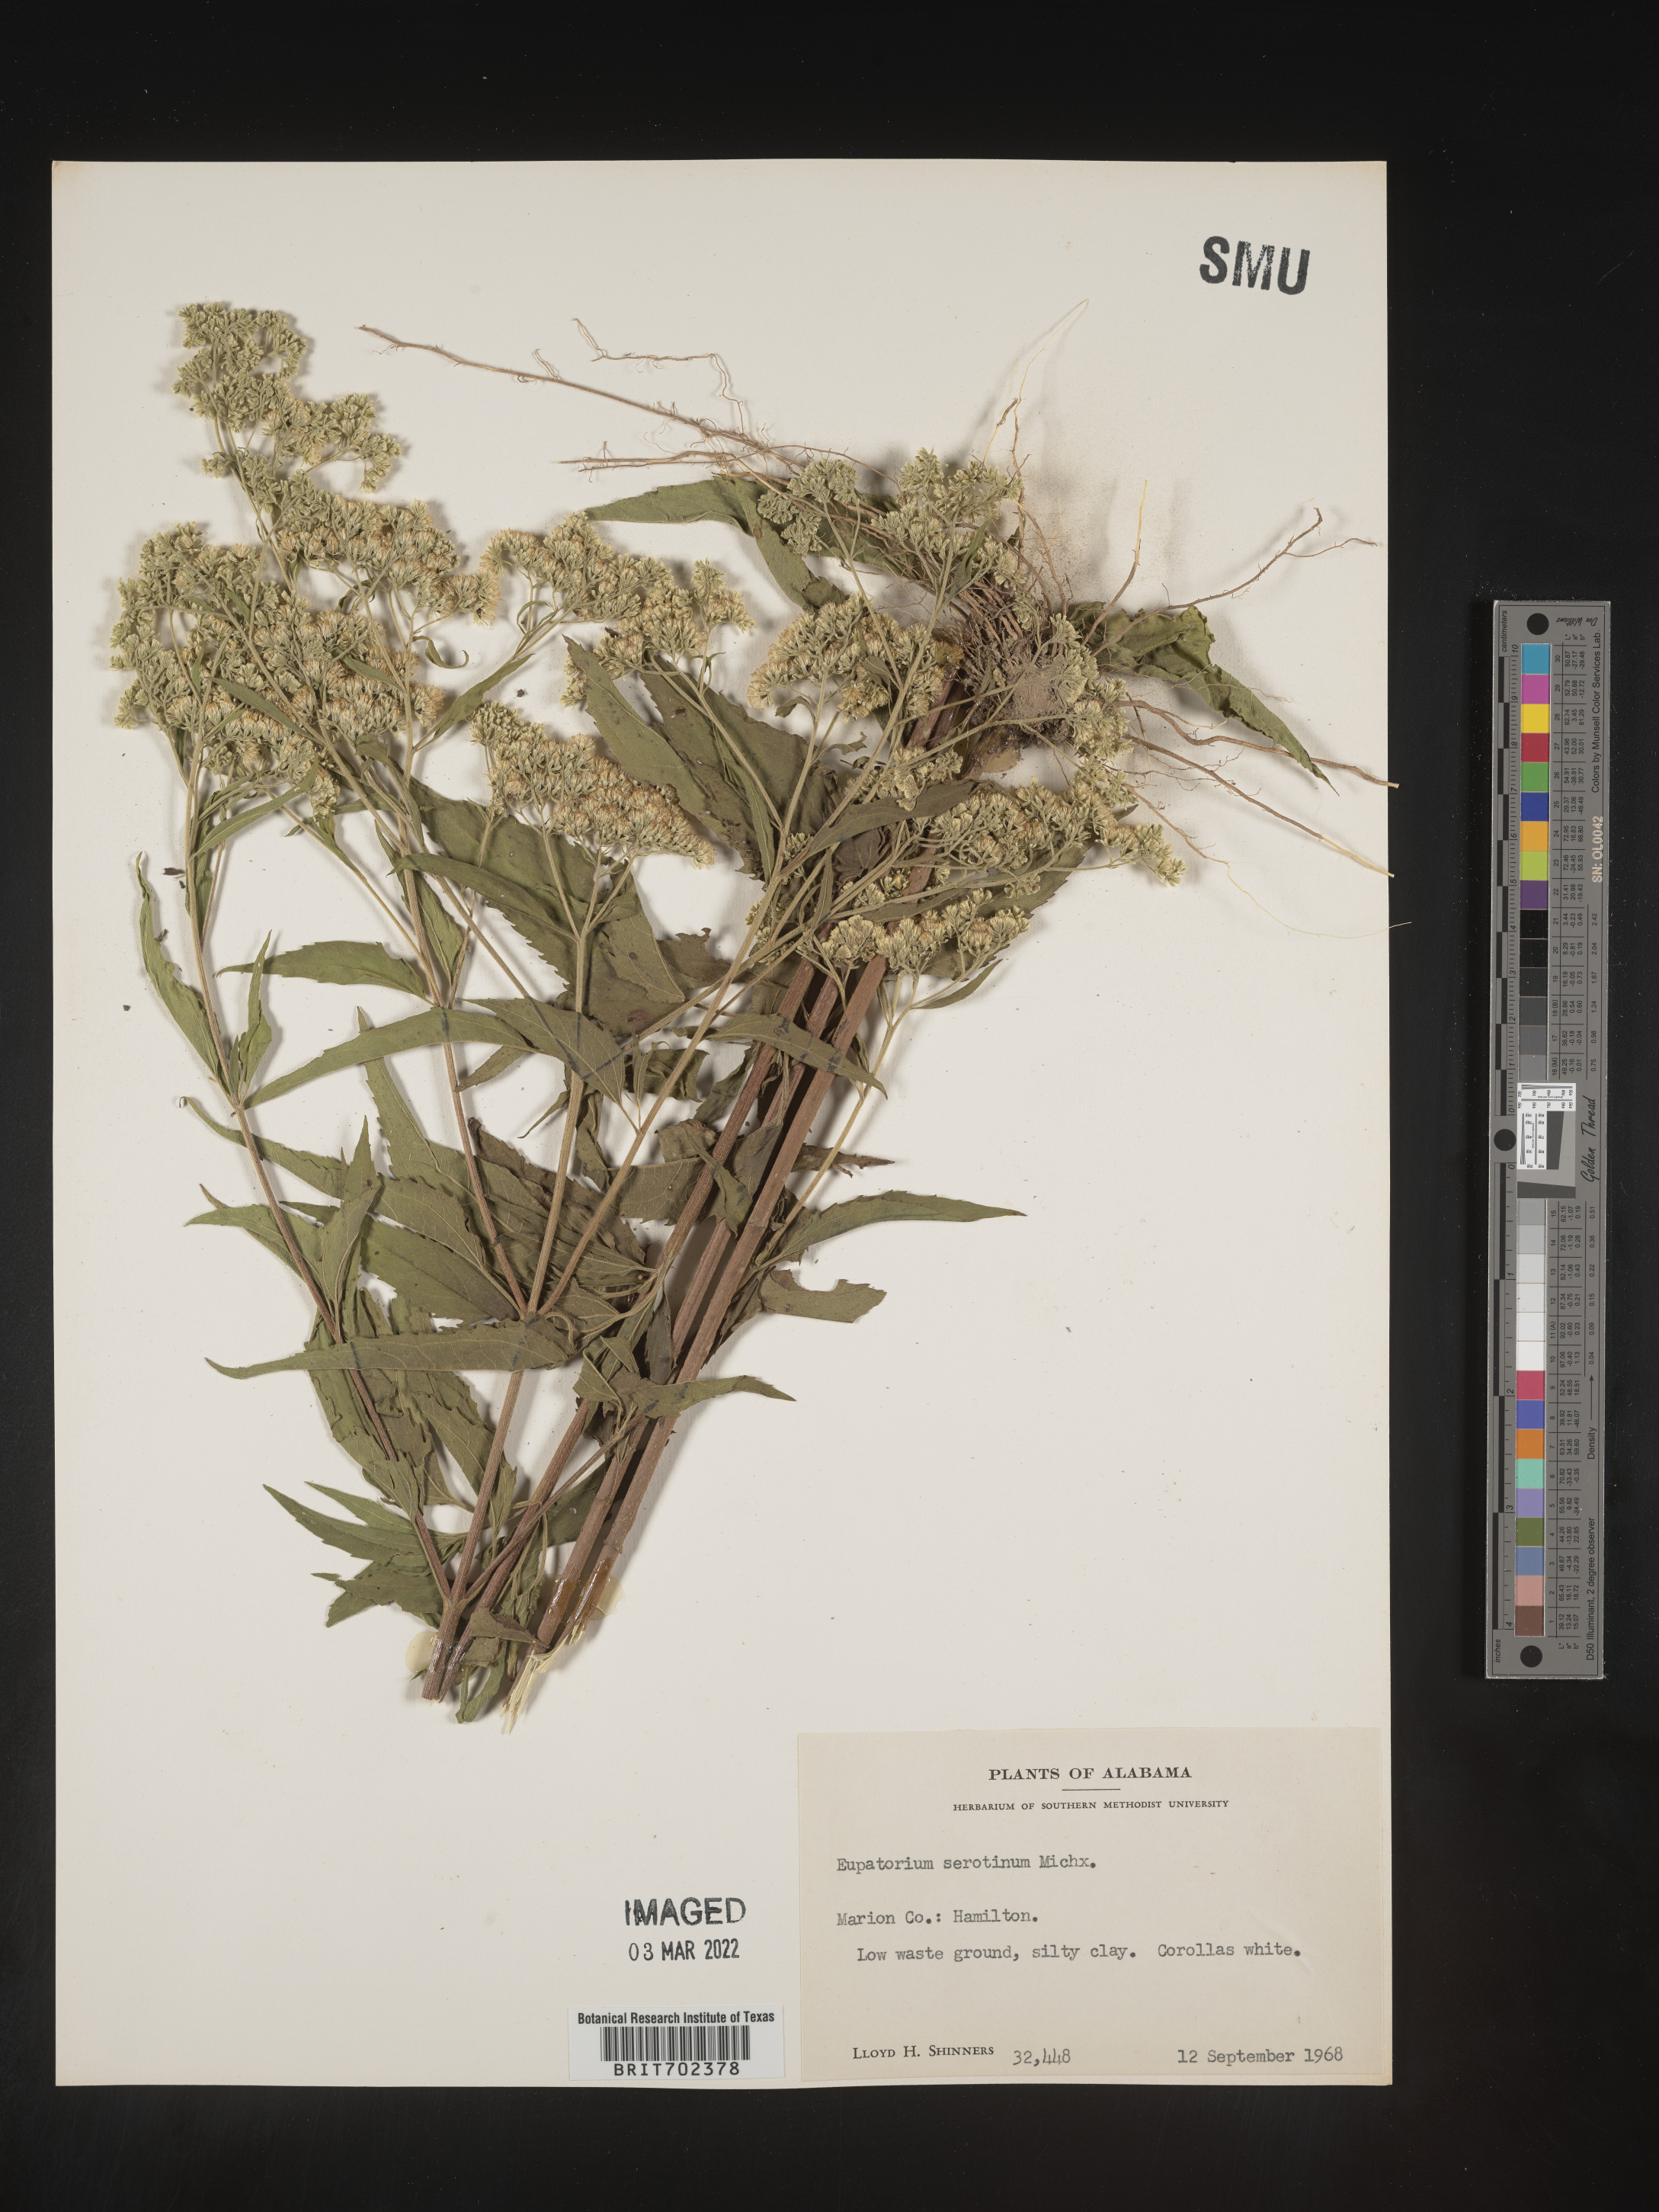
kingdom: Plantae
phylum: Tracheophyta
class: Magnoliopsida
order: Asterales
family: Asteraceae
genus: Eupatorium
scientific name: Eupatorium serotinum
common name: Late boneset
